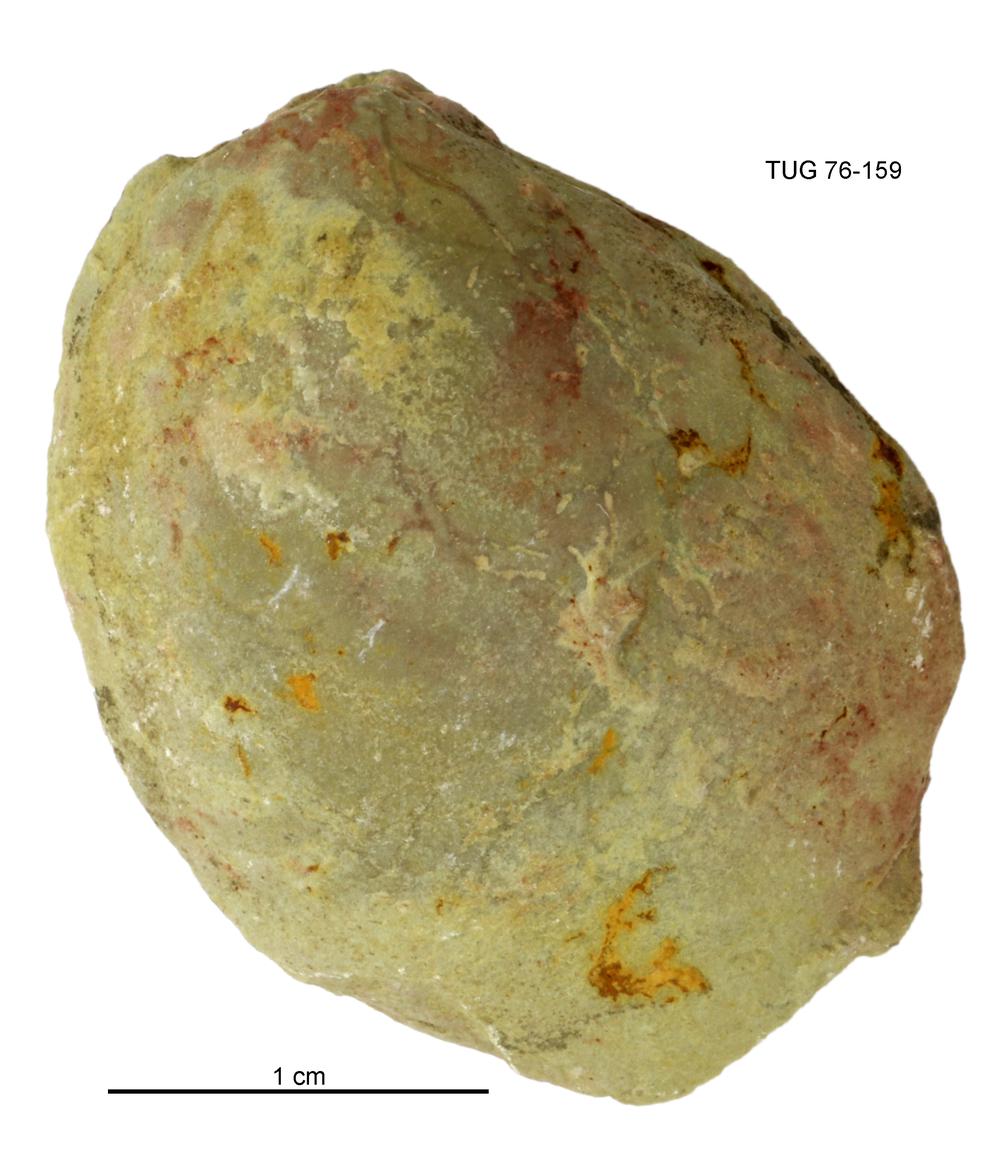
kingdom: Animalia
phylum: Mollusca
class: Bivalvia
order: Cyrtodontida
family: Cyrtodontidae
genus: Cypricardites
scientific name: Cypricardites
